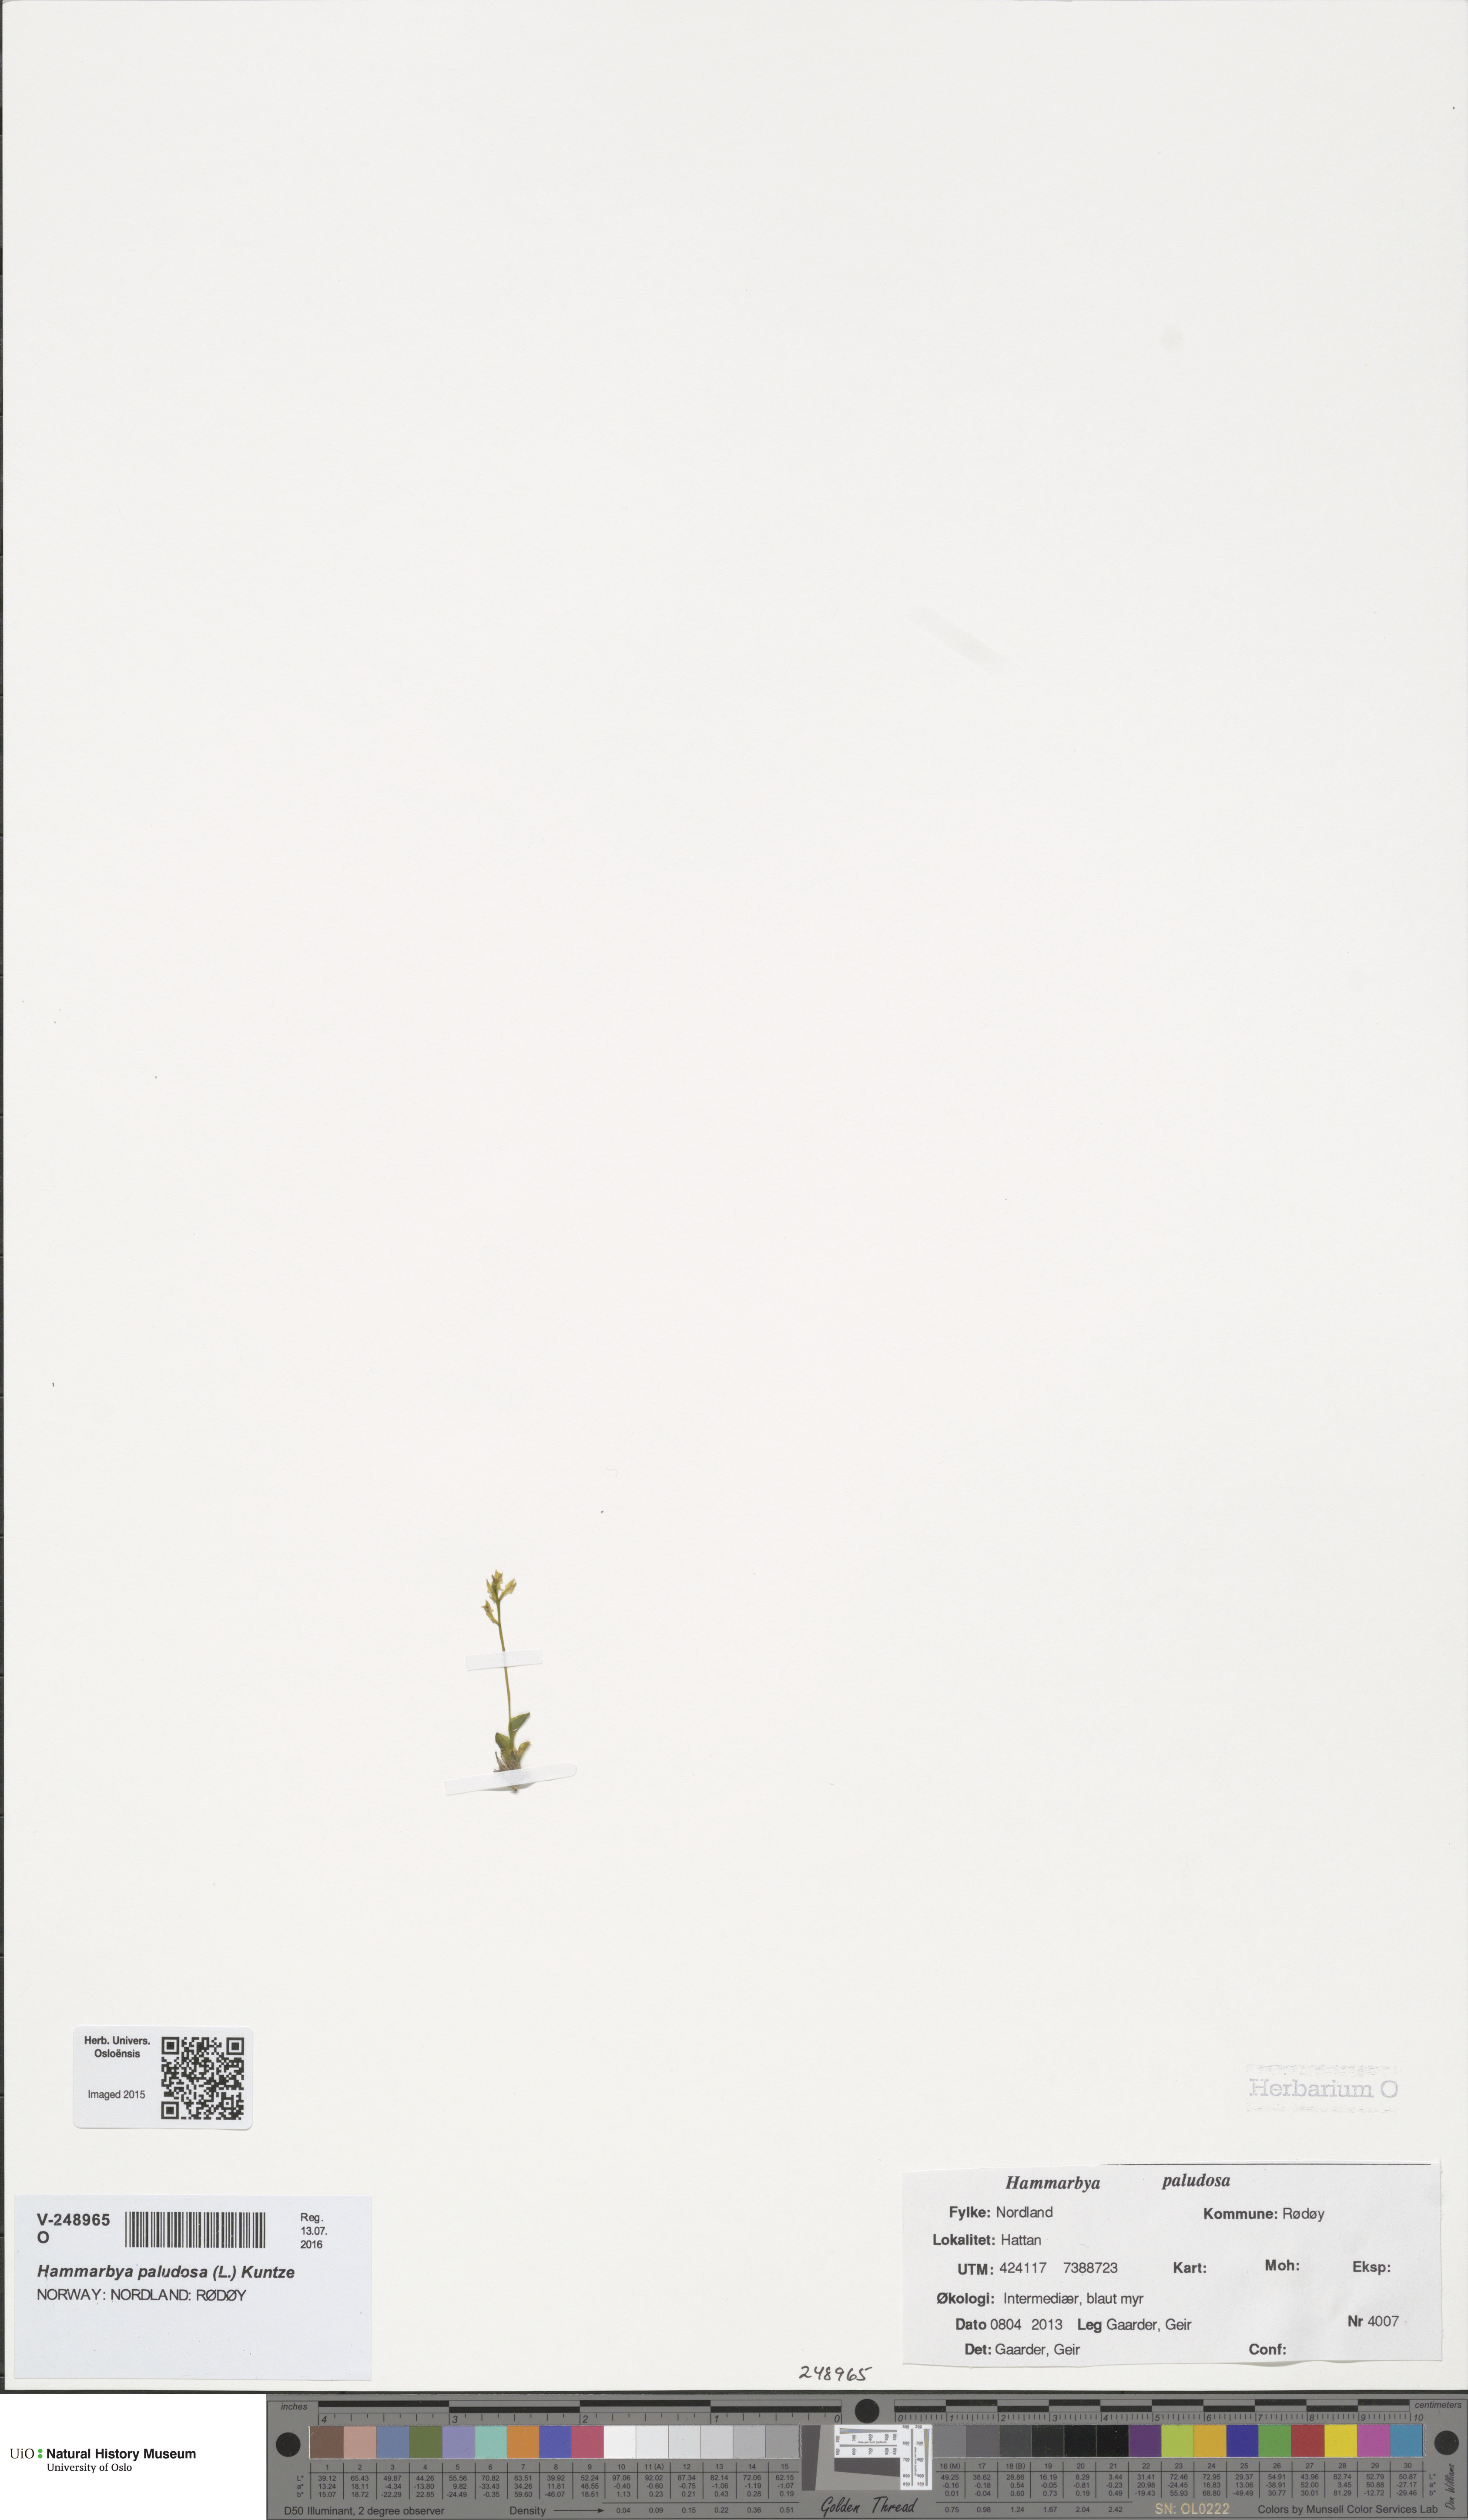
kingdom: Plantae
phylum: Tracheophyta
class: Liliopsida
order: Asparagales
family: Orchidaceae
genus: Hammarbya
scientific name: Hammarbya paludosa
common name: Bog orchid
